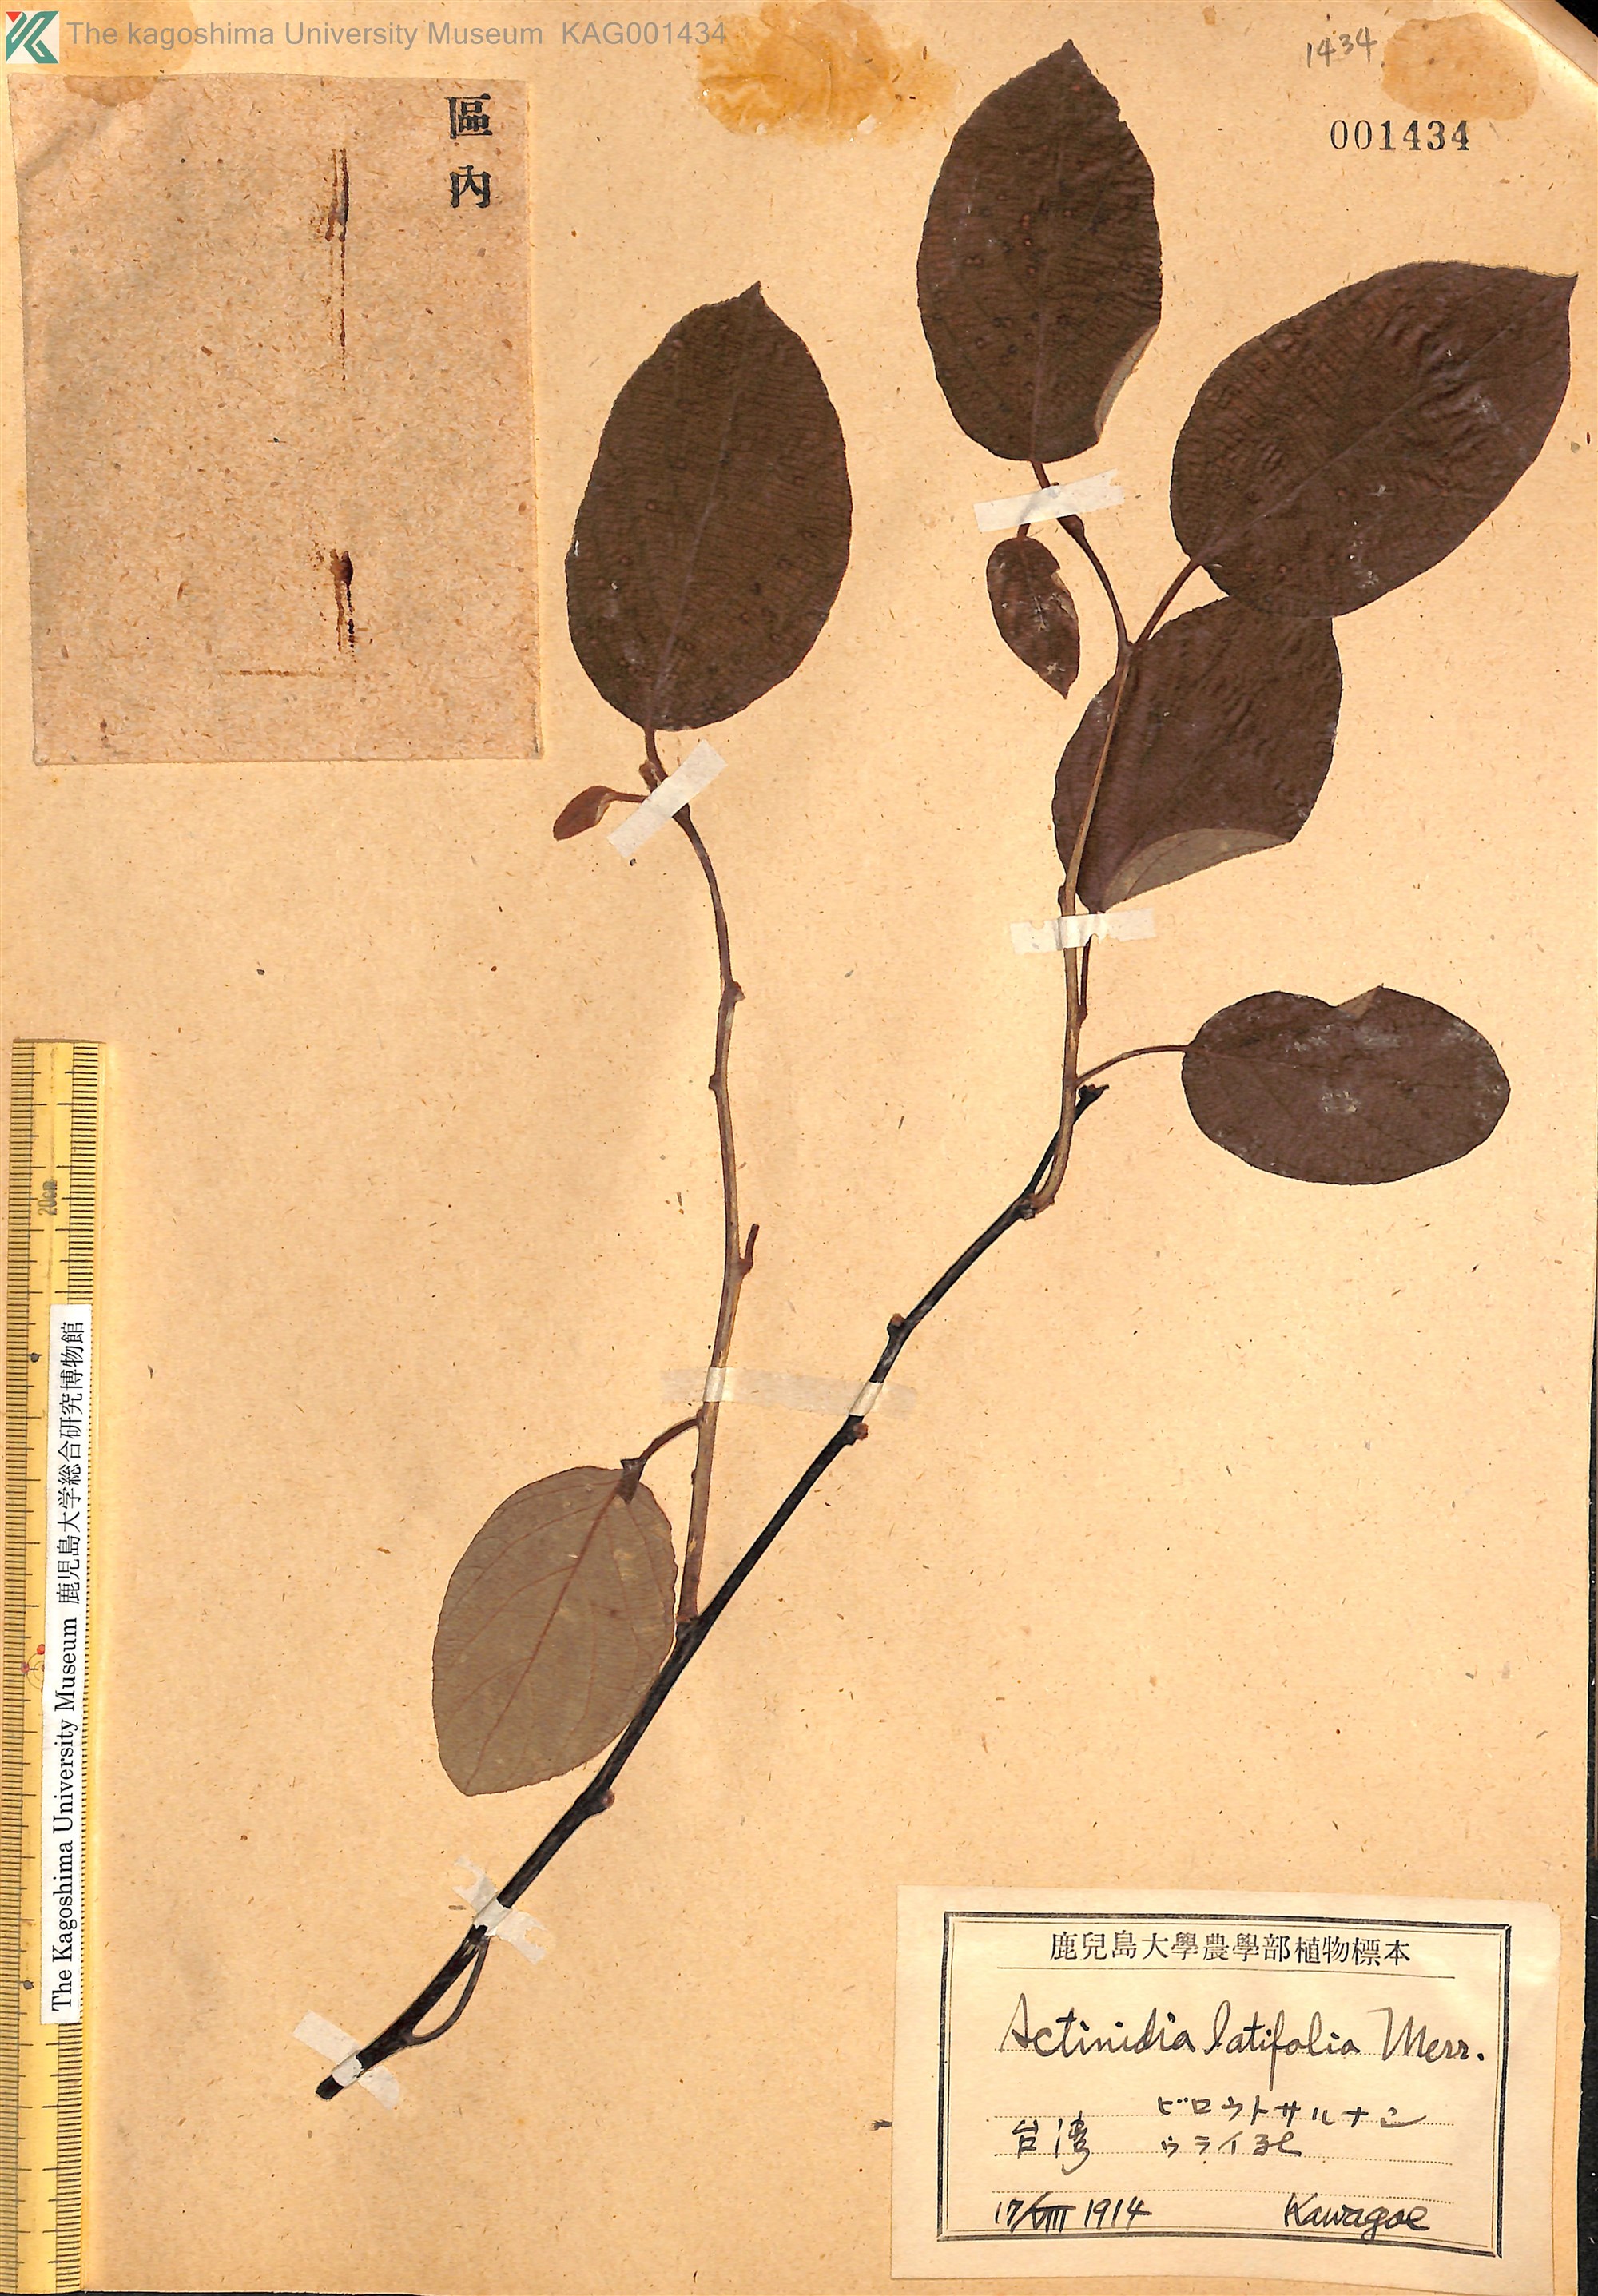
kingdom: Plantae
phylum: Tracheophyta
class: Magnoliopsida
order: Ericales
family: Actinidiaceae
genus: Actinidia
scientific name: Actinidia latifolia
